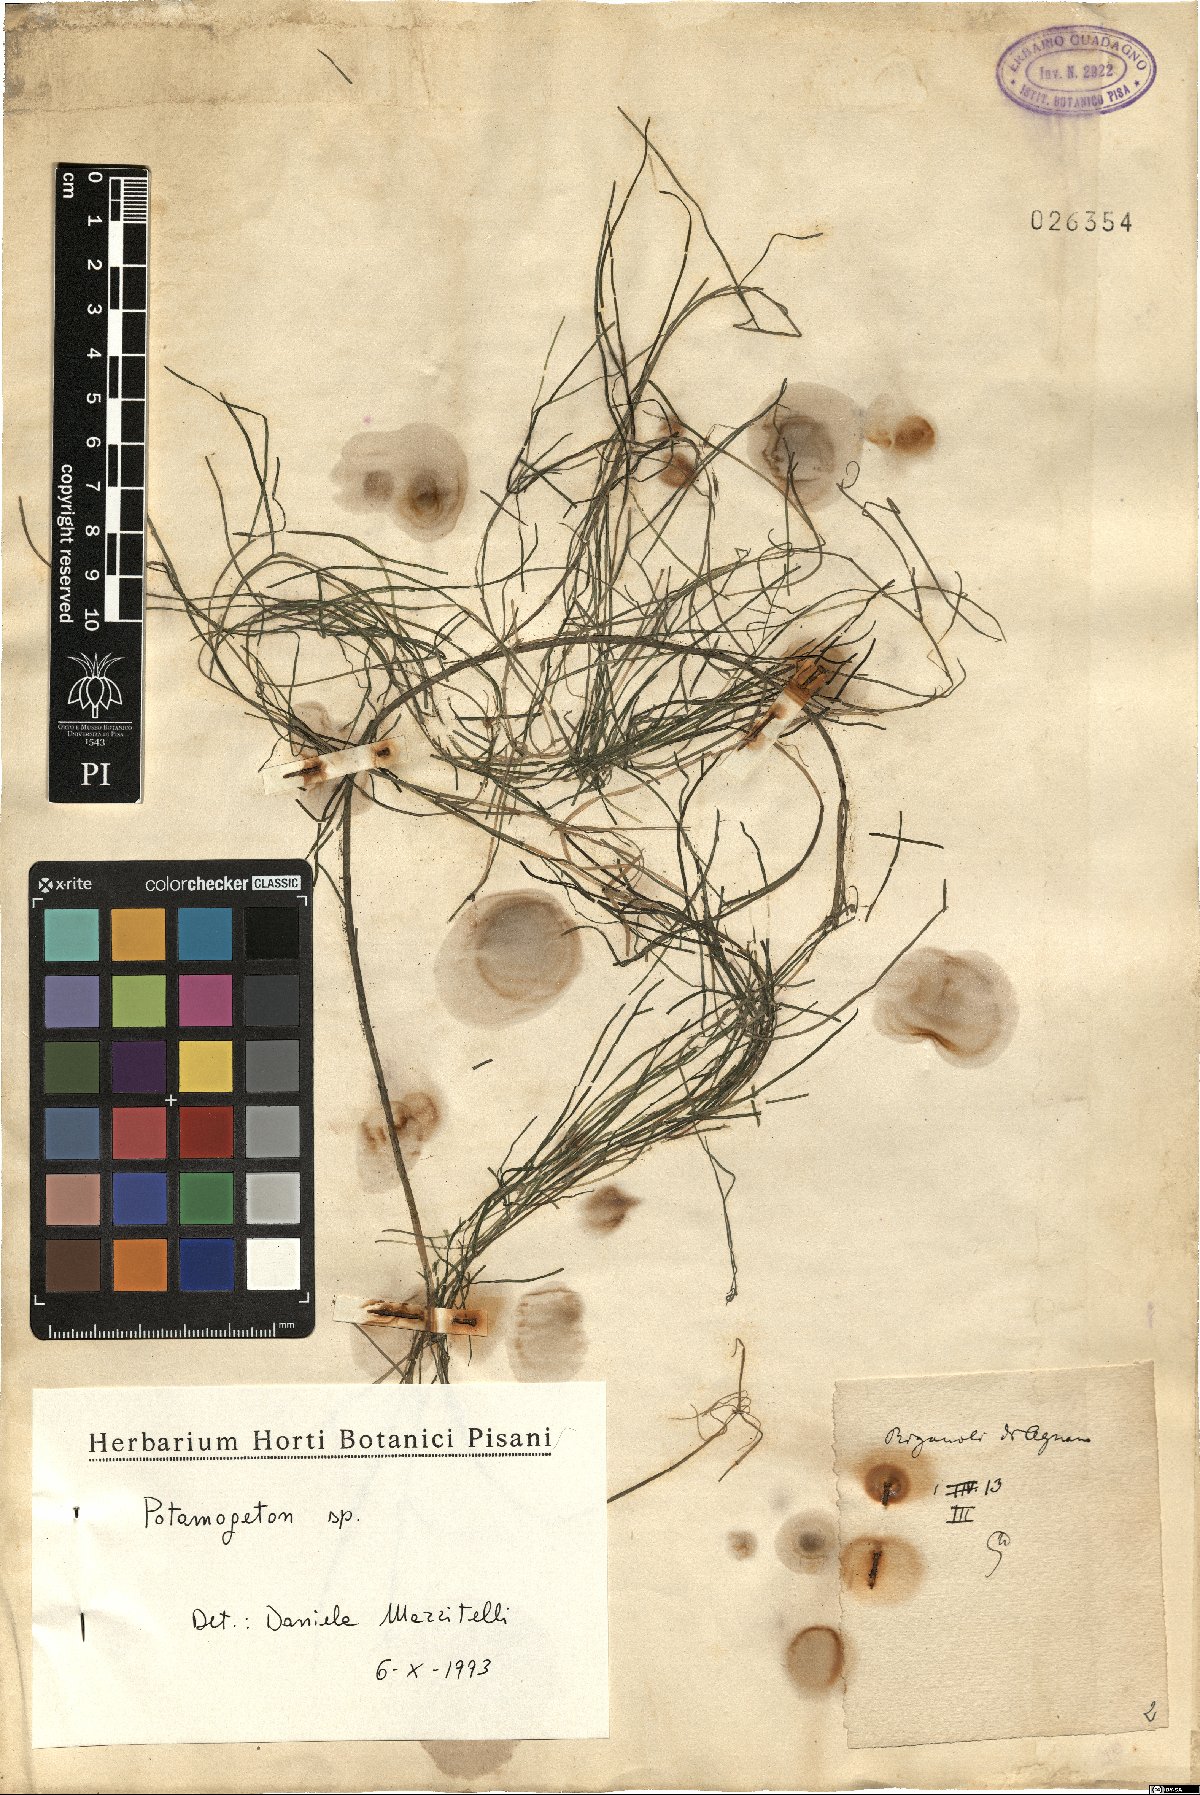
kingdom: Plantae
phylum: Tracheophyta
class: Liliopsida
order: Alismatales
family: Potamogetonaceae
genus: Potamogeton
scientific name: Potamogeton
